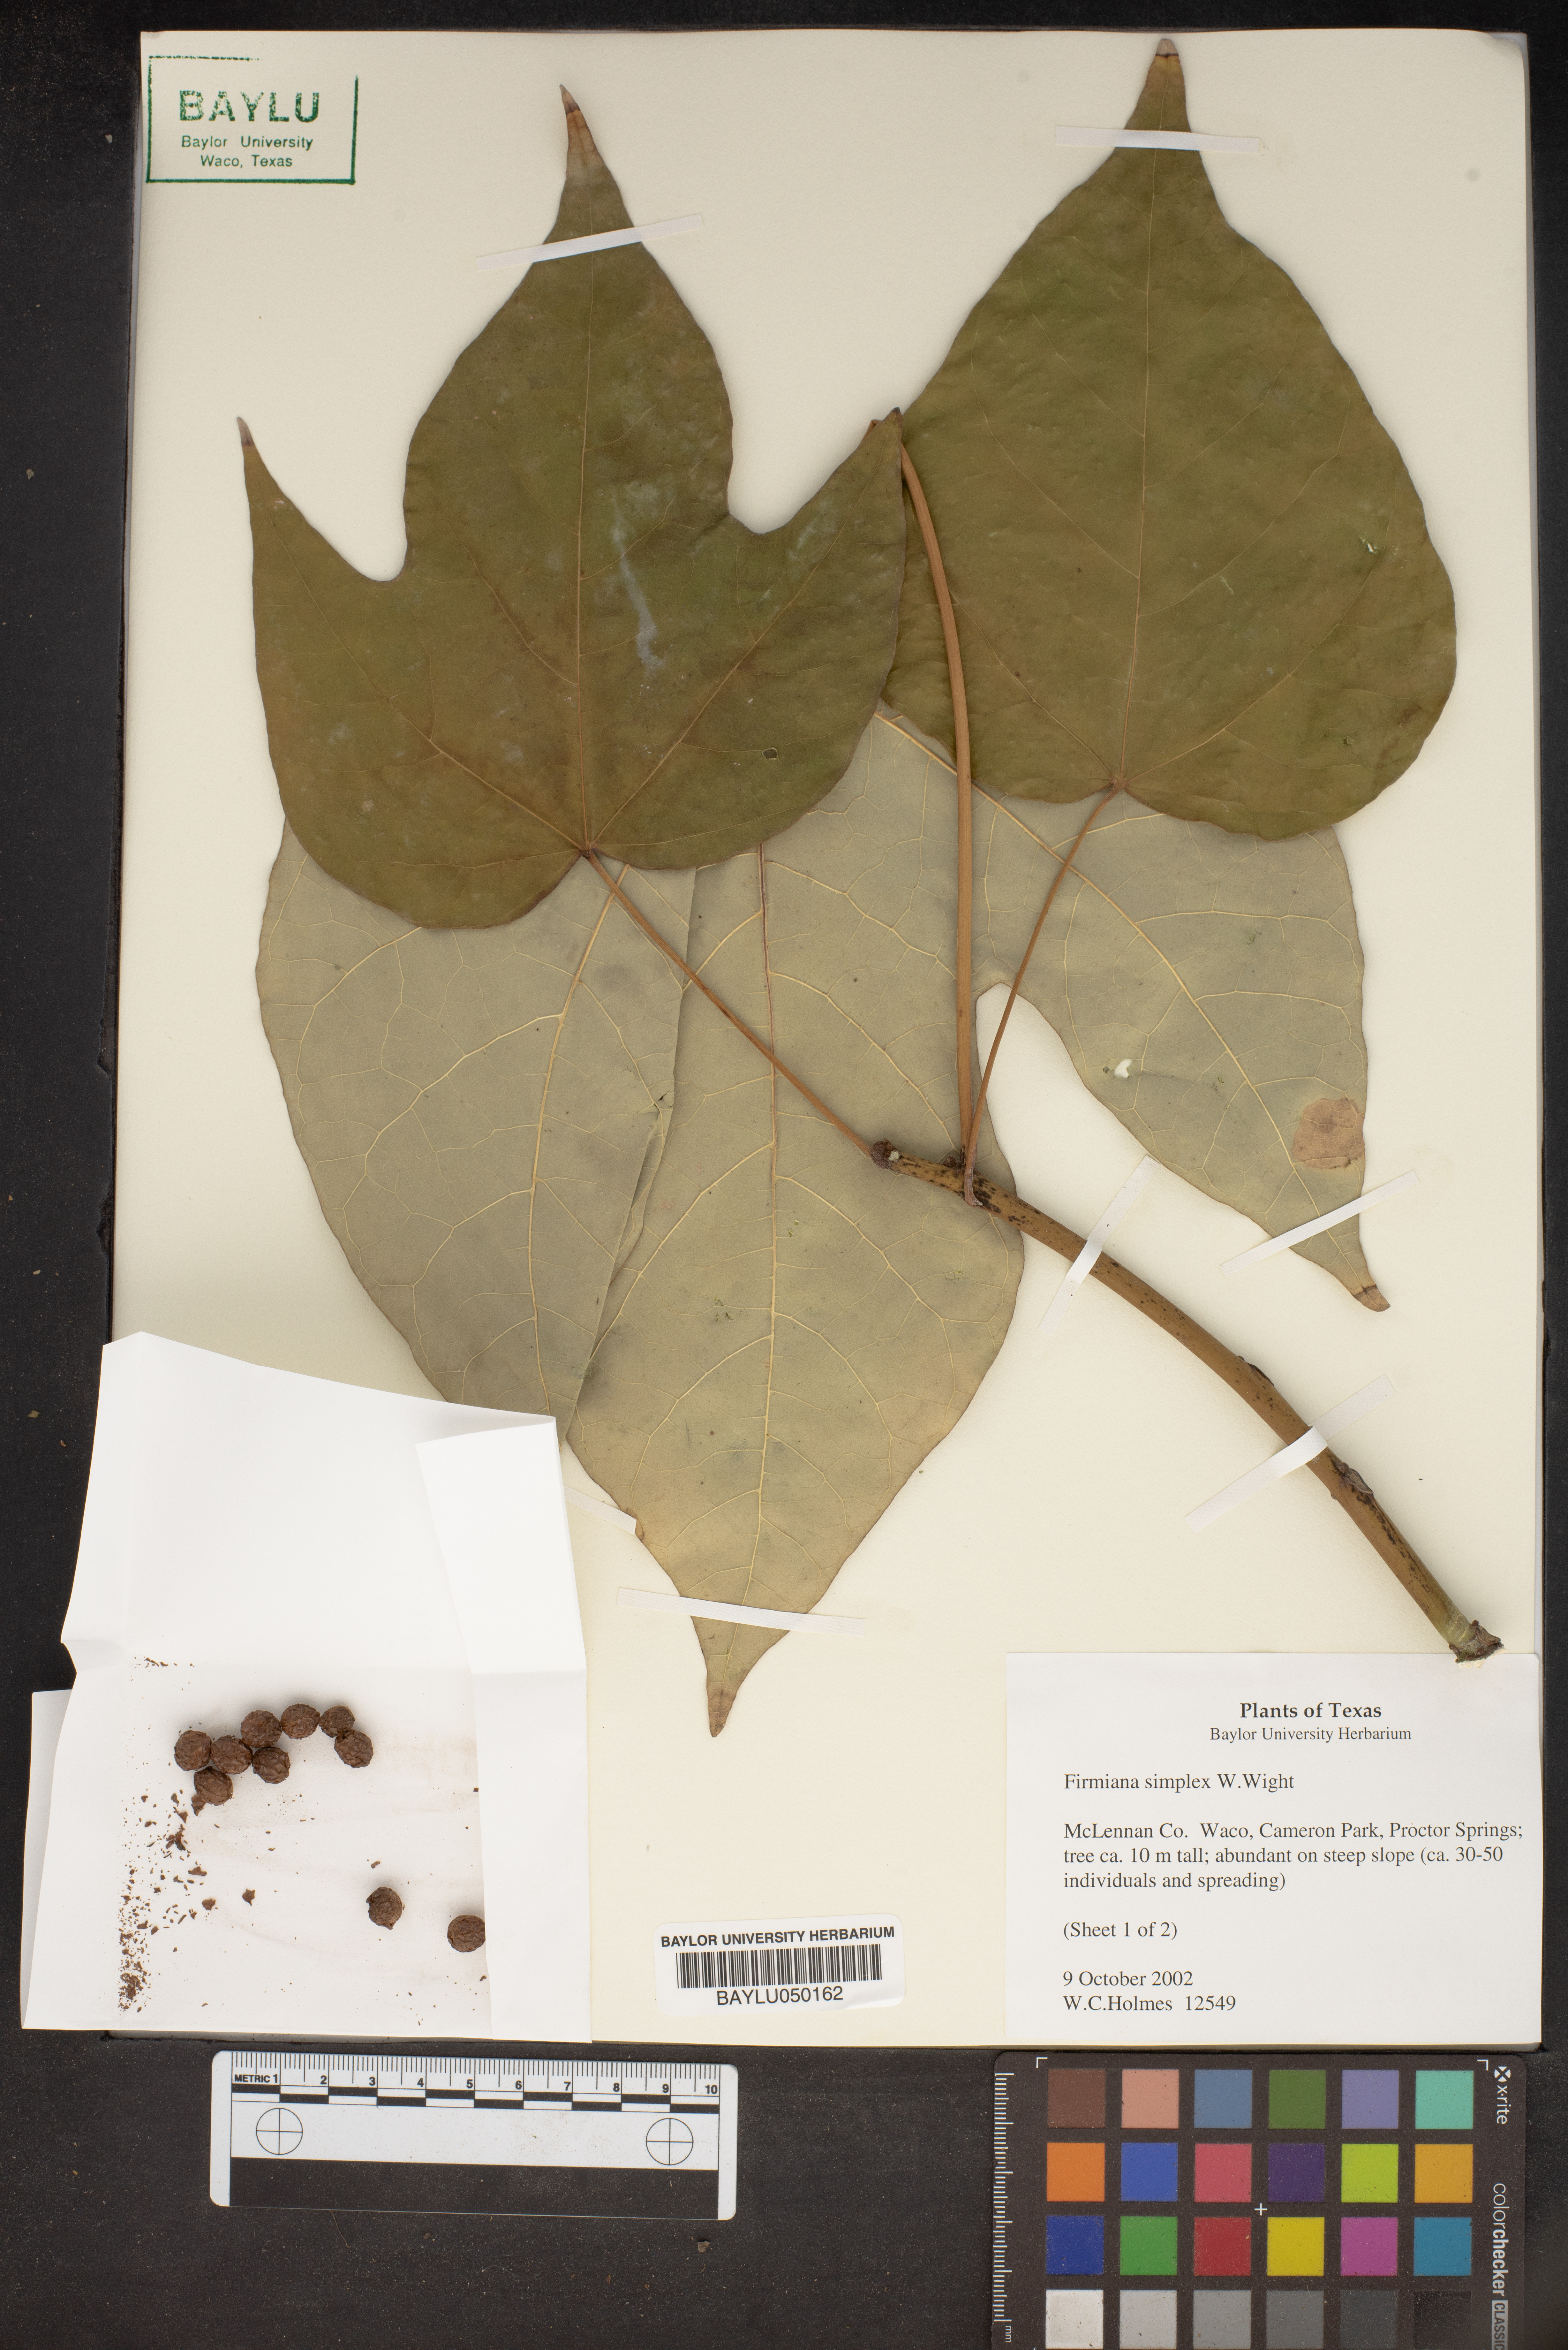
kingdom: Plantae
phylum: Tracheophyta
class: Magnoliopsida
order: Malvales
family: Malvaceae
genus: Firmiana
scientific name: Firmiana simplex
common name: Chinese parasoltree
